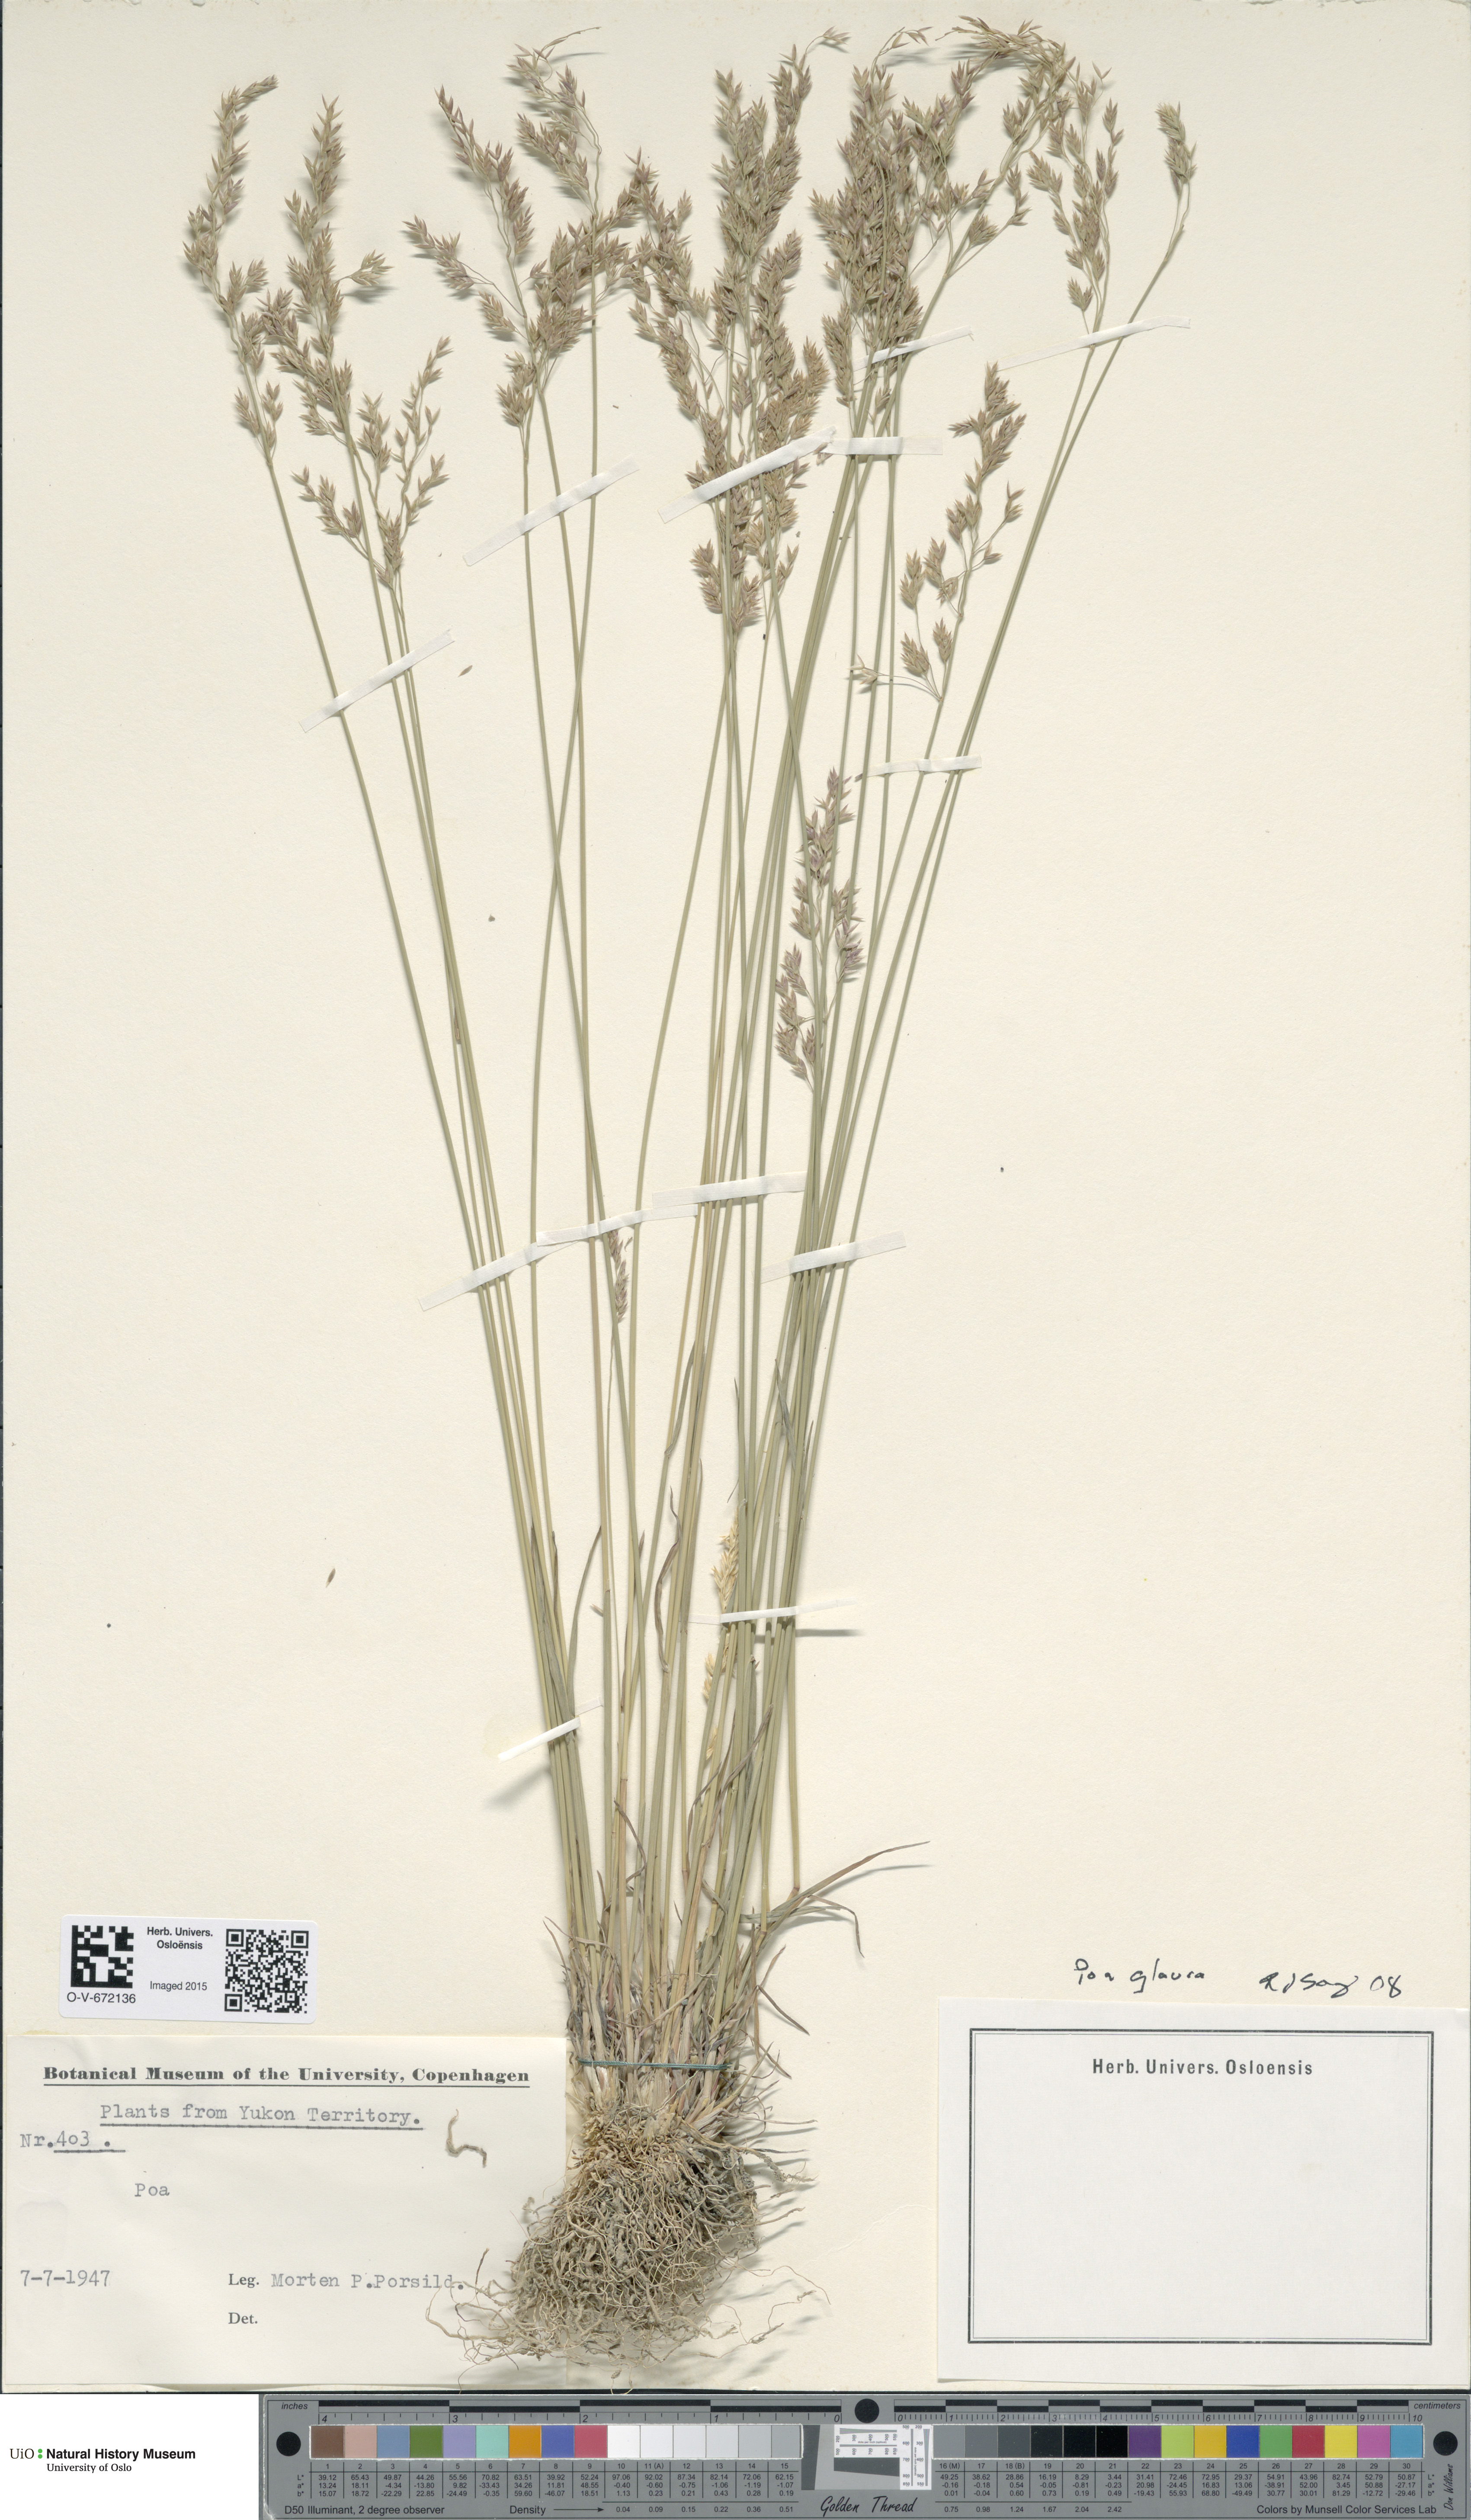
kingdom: Plantae
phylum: Tracheophyta
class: Liliopsida
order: Poales
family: Poaceae
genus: Poa
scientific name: Poa glauca
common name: Glaucous bluegrass
